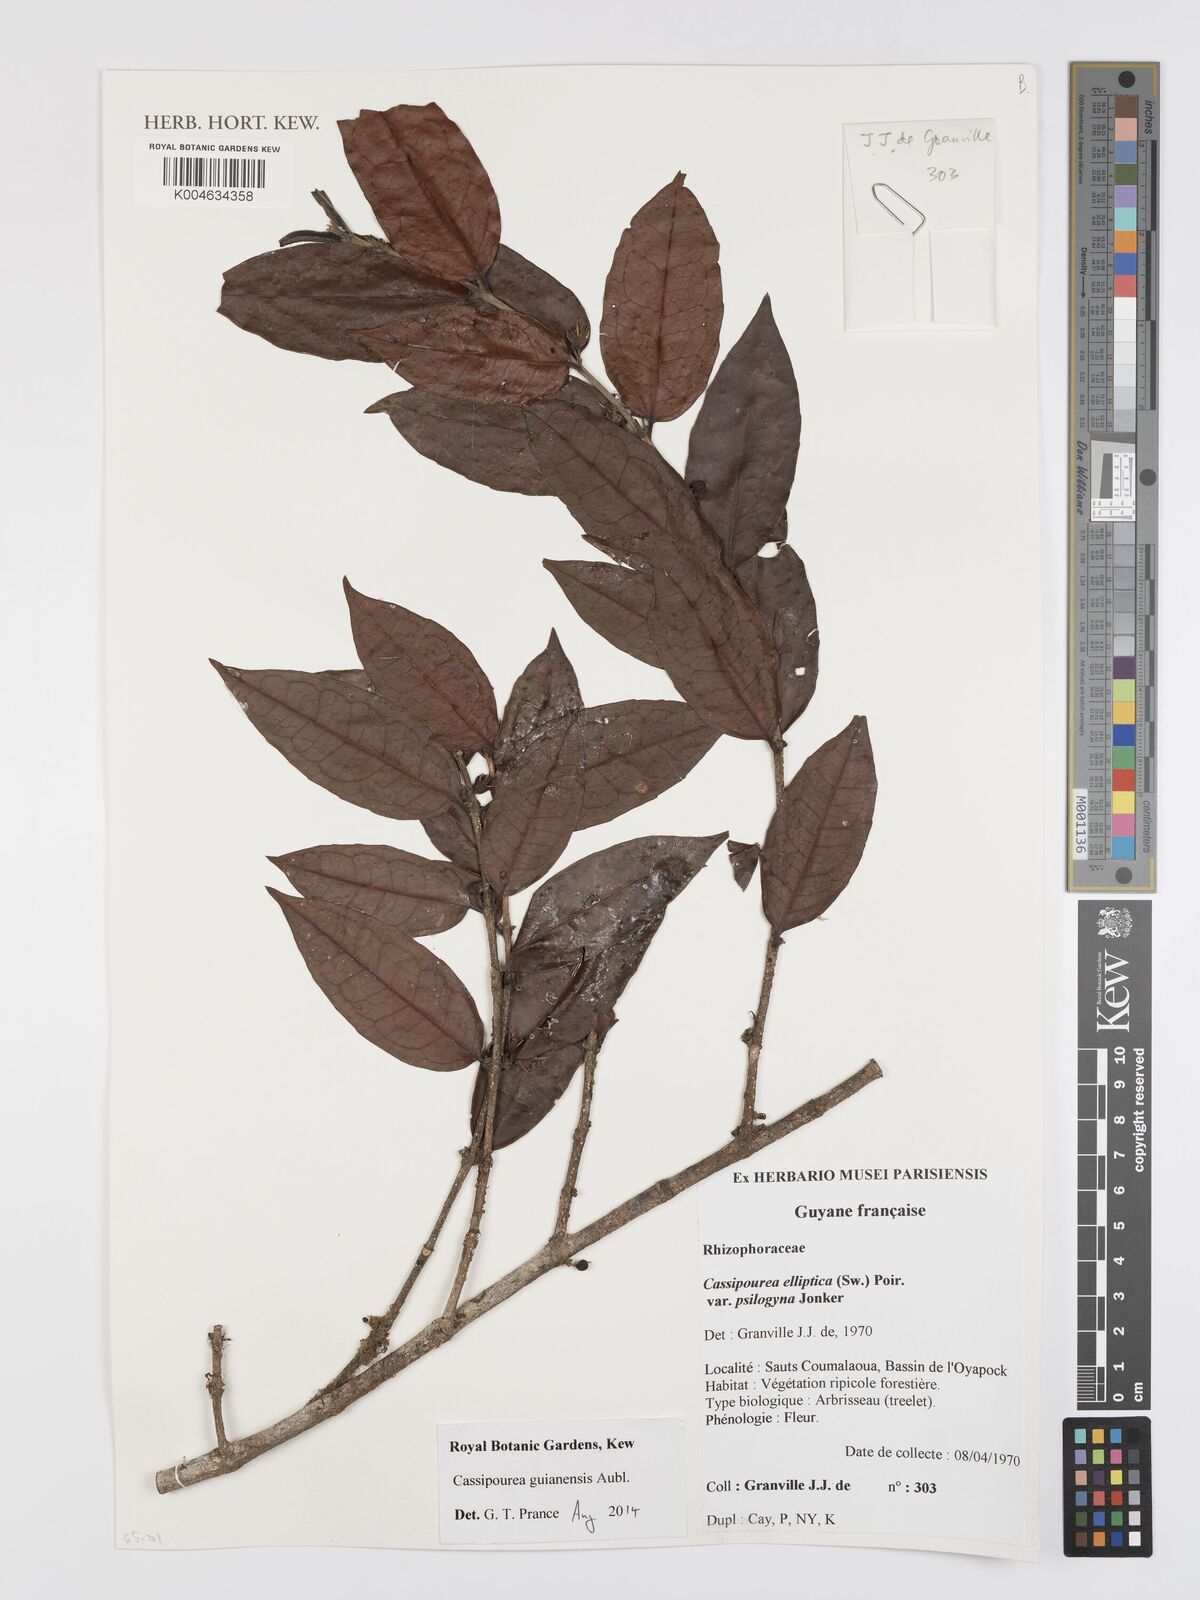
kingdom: Plantae
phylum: Tracheophyta
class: Magnoliopsida
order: Malpighiales
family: Rhizophoraceae
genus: Cassipourea
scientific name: Cassipourea guianensis
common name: Bastard waterwood
